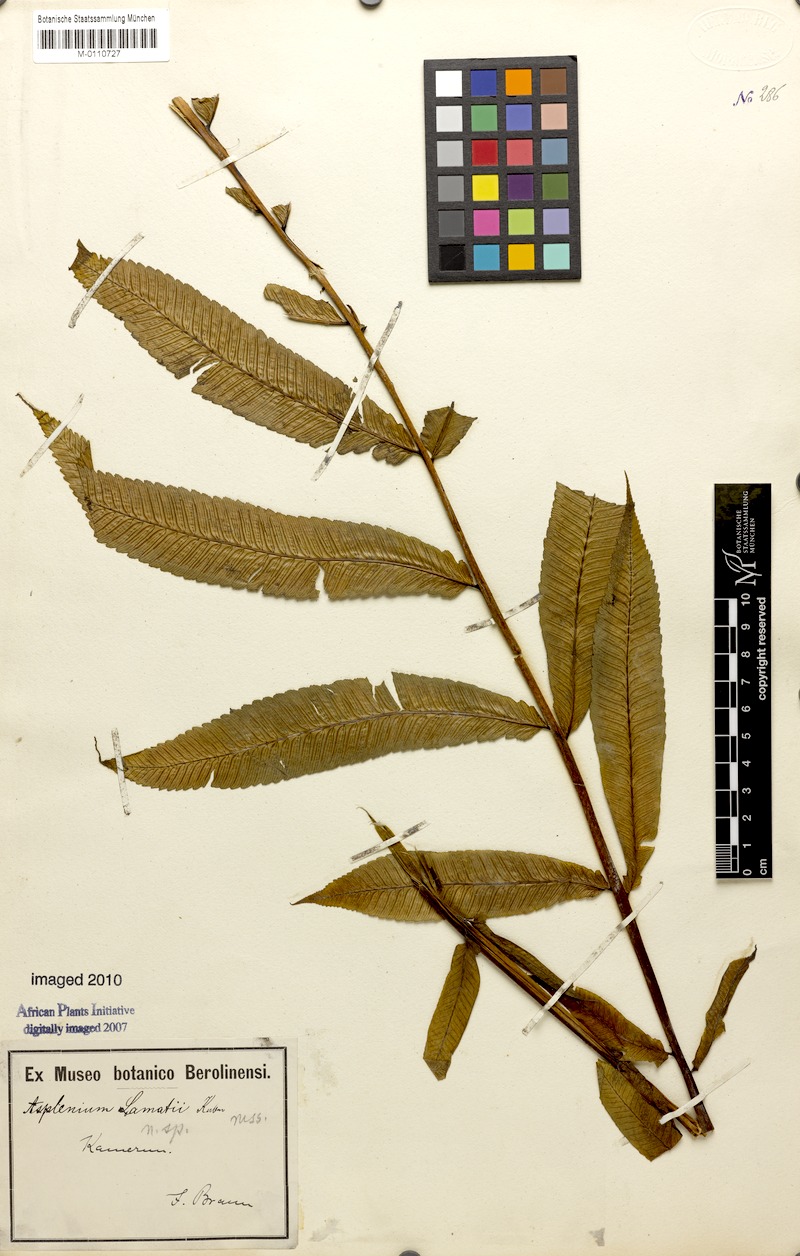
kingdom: Plantae
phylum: Tracheophyta
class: Polypodiopsida
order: Polypodiales
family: Athyriaceae
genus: Diplazium
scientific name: Diplazium sammatii
